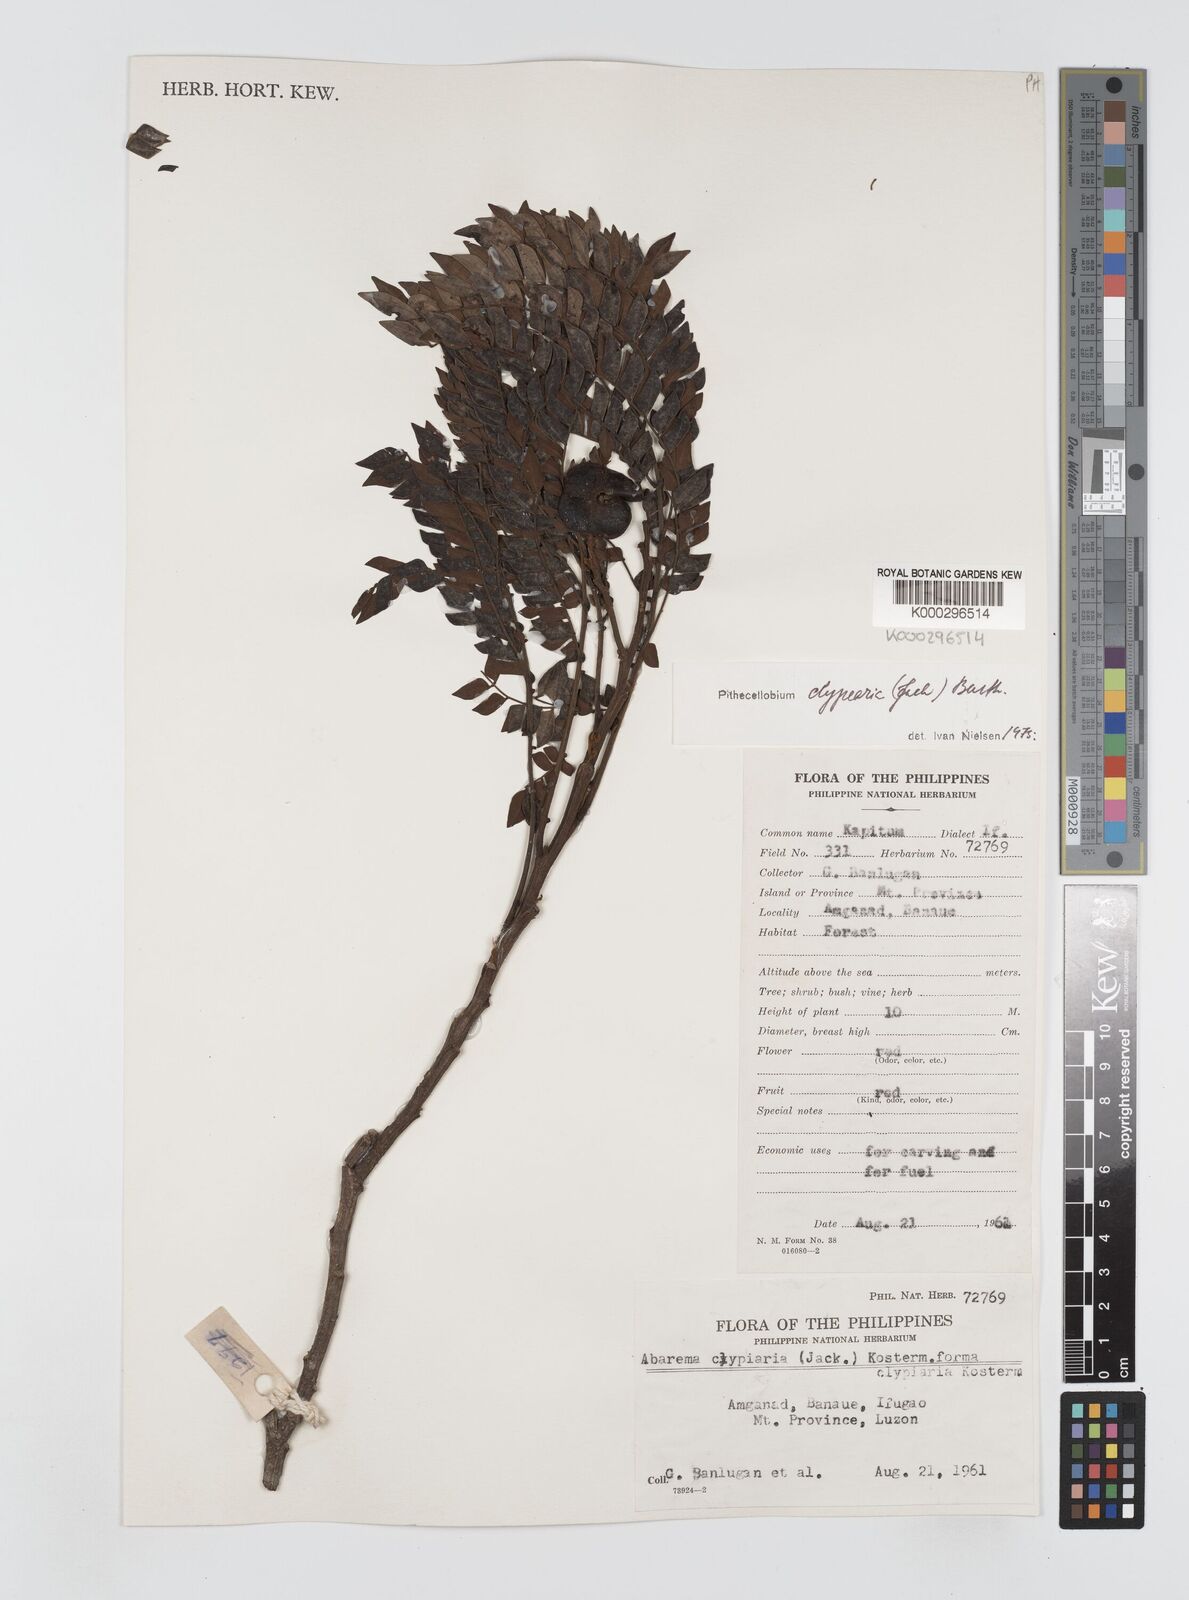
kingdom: Plantae
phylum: Tracheophyta
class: Magnoliopsida
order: Fabales
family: Fabaceae
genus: Archidendron
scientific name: Archidendron clypearia
